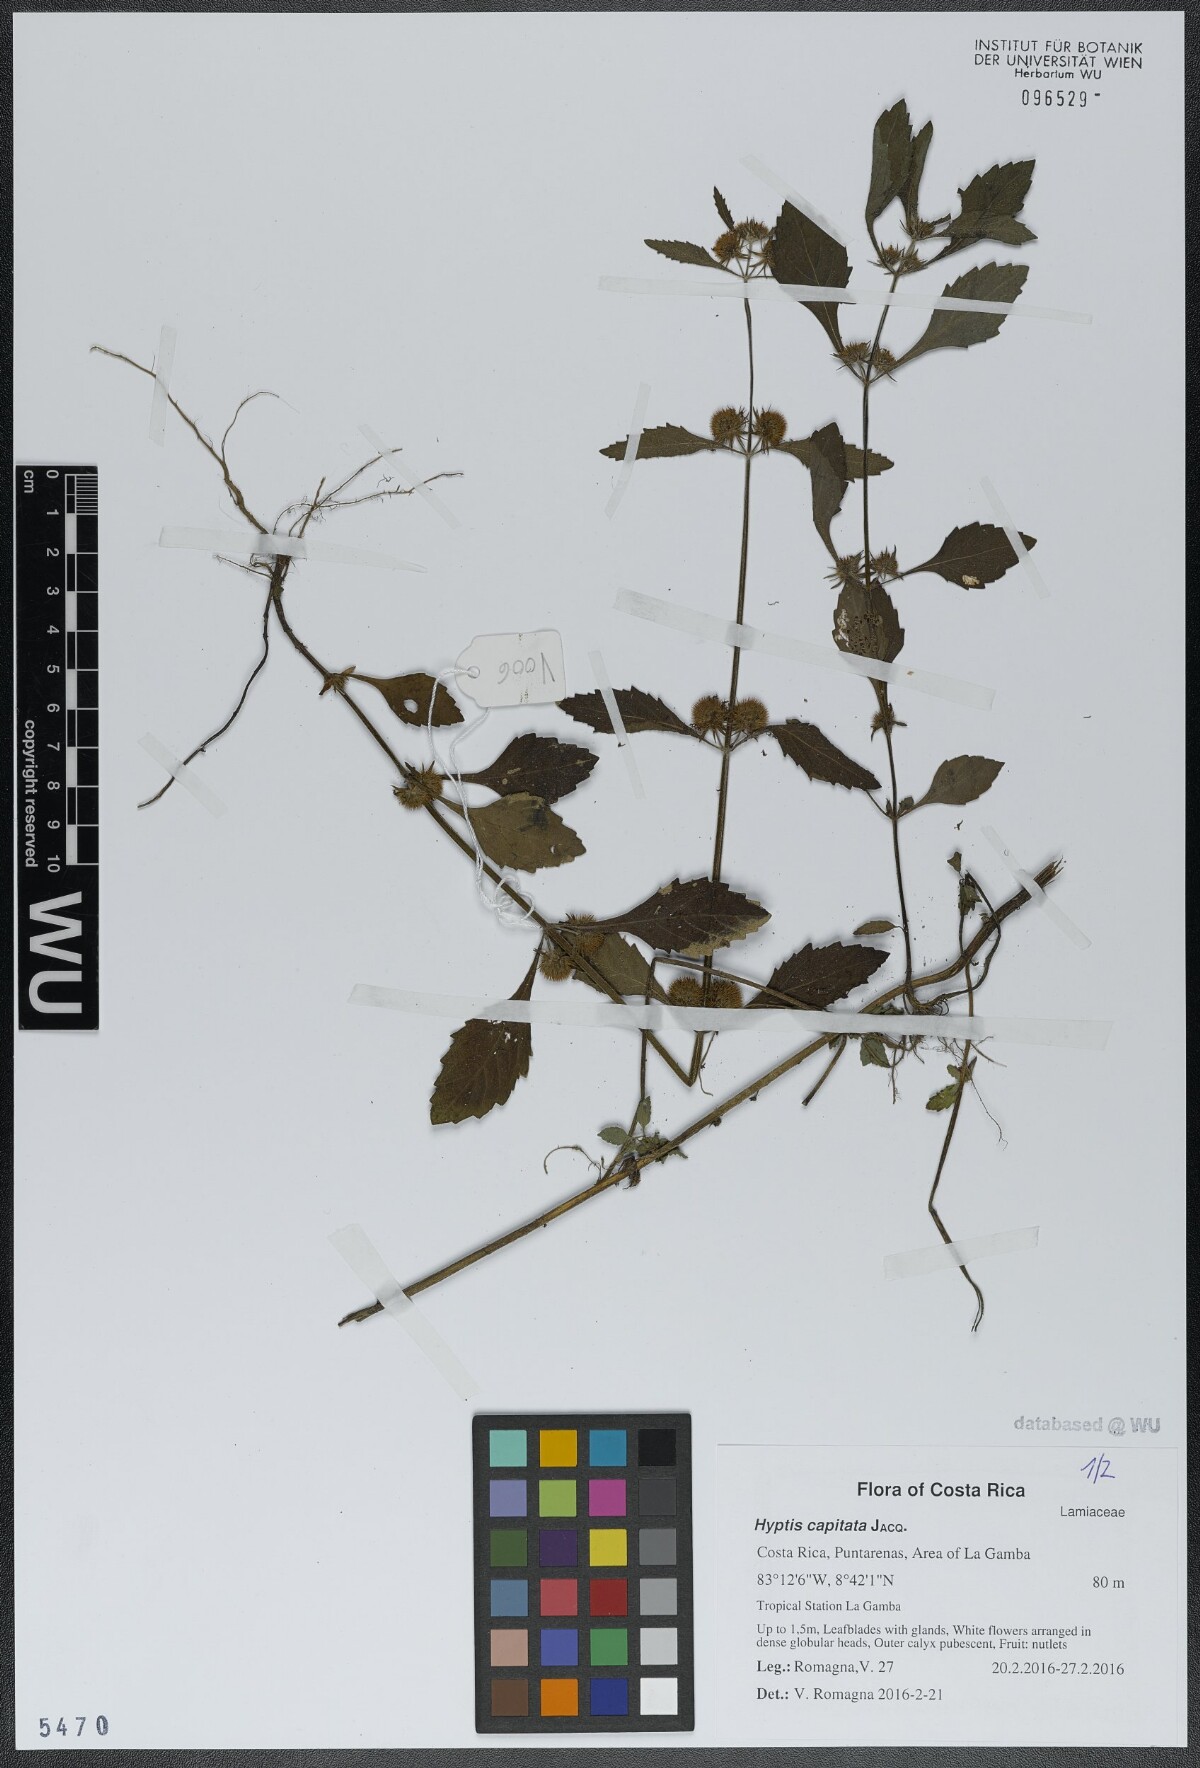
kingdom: Plantae
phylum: Tracheophyta
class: Magnoliopsida
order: Lamiales
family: Lamiaceae
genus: Hyptis
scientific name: Hyptis capitata
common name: False ironwort
